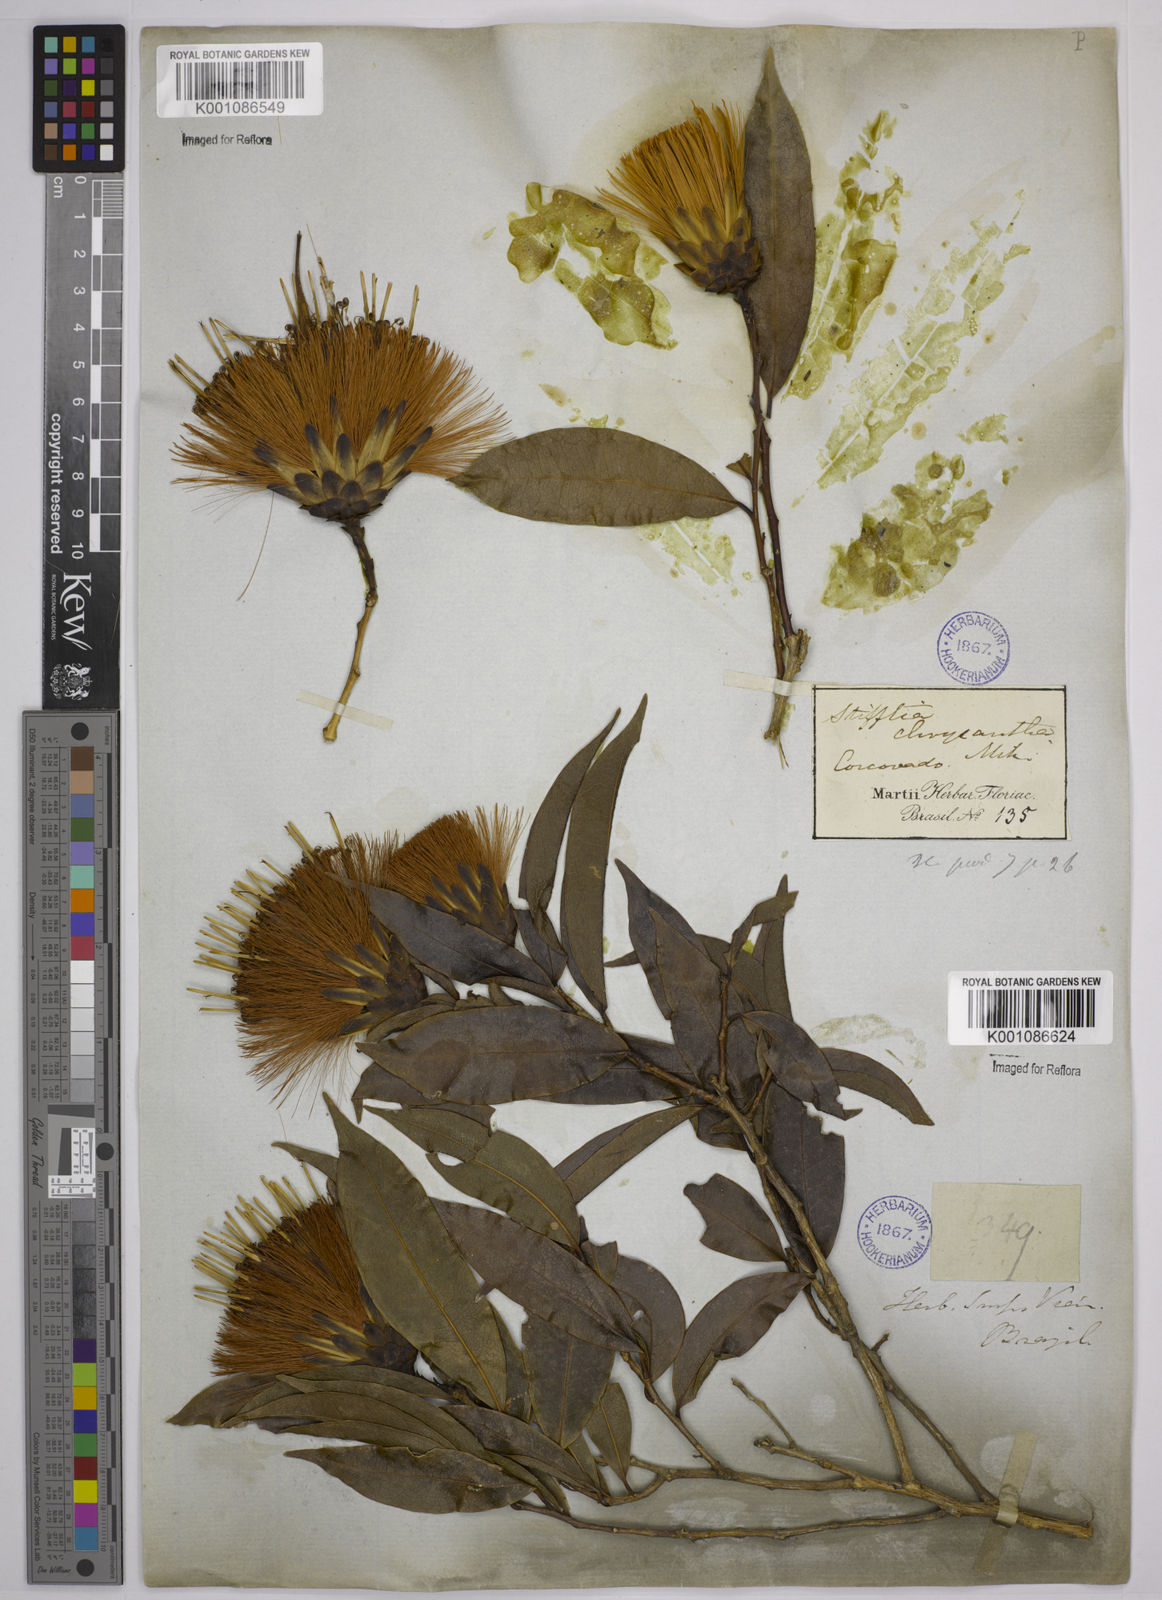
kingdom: Plantae
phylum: Tracheophyta
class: Magnoliopsida
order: Asterales
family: Asteraceae
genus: Stifftia
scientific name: Stifftia chrysantha
